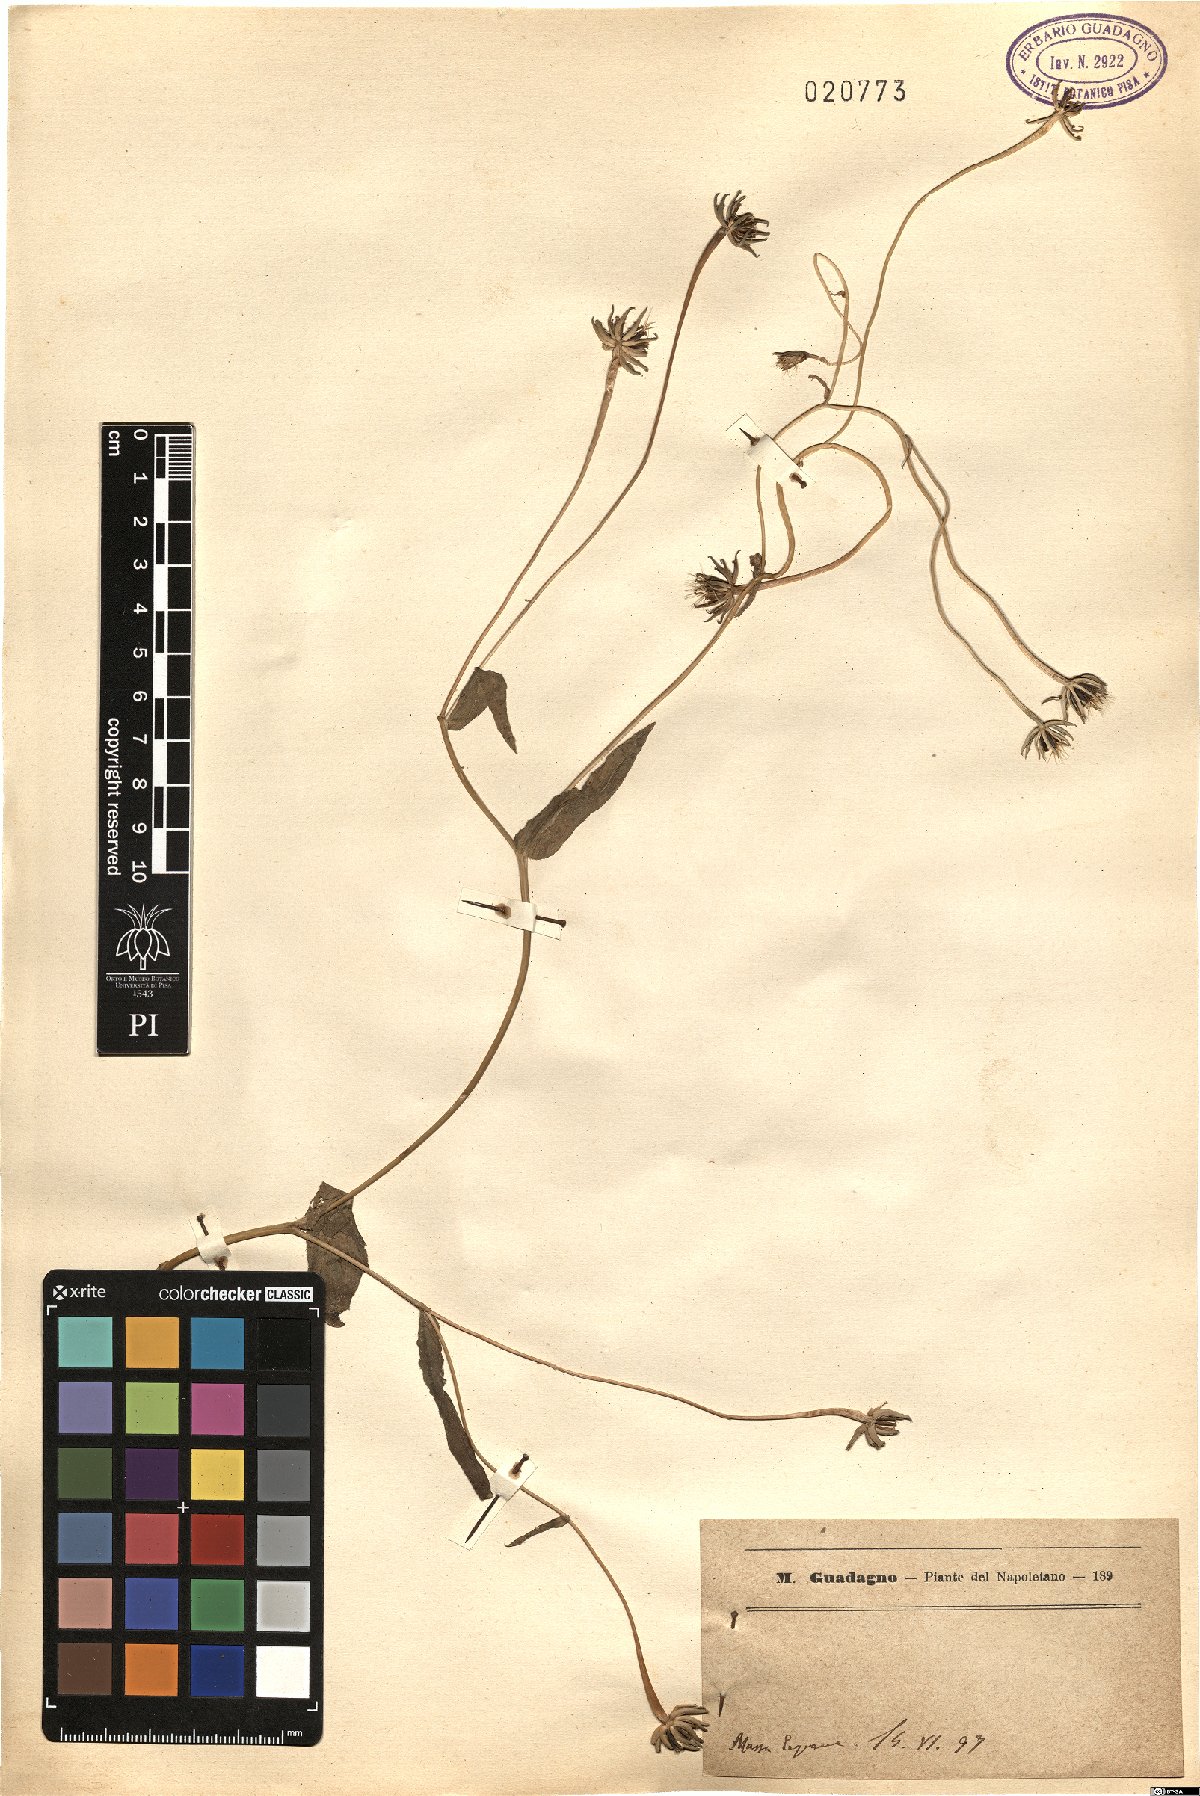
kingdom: Plantae
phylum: Tracheophyta
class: Magnoliopsida
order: Asterales
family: Asteraceae
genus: Rhagadiolus
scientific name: Rhagadiolus
